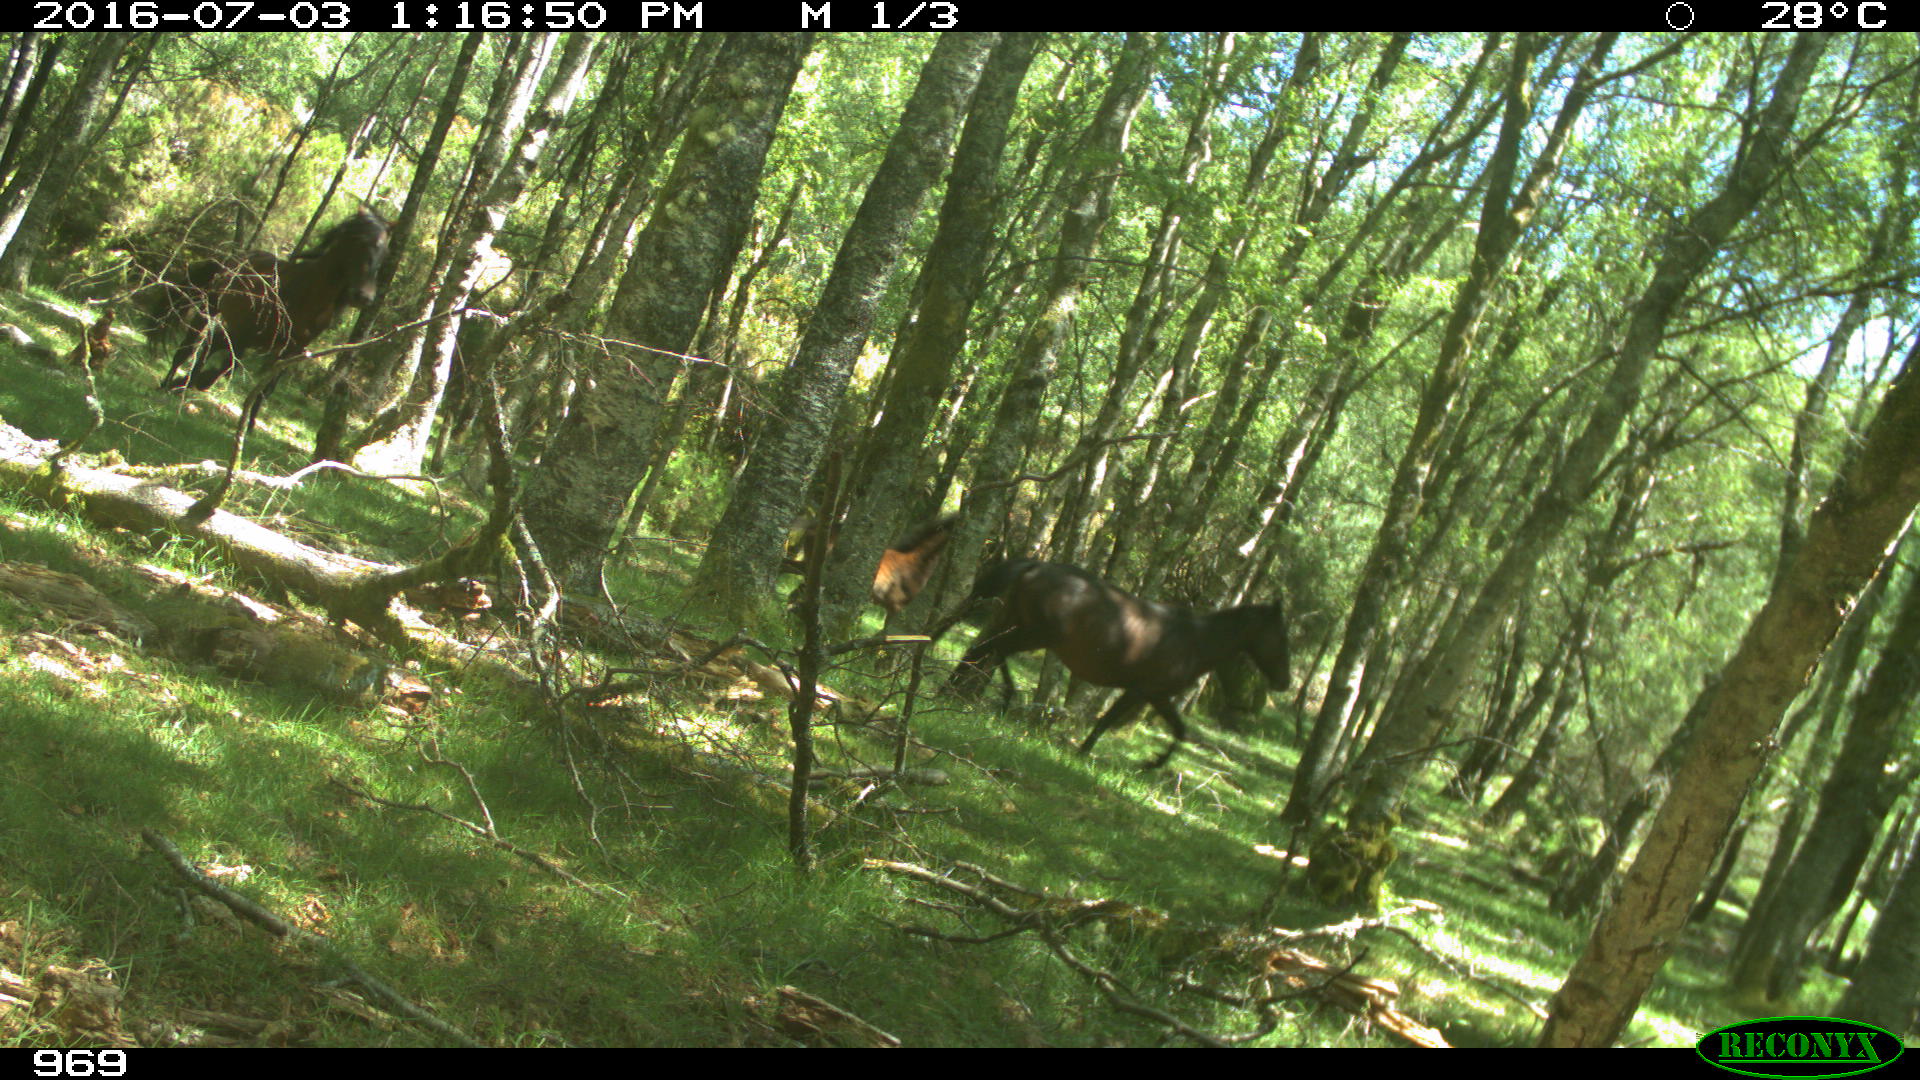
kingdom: Animalia
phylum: Chordata
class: Mammalia
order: Perissodactyla
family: Equidae
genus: Equus
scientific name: Equus caballus
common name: Horse
